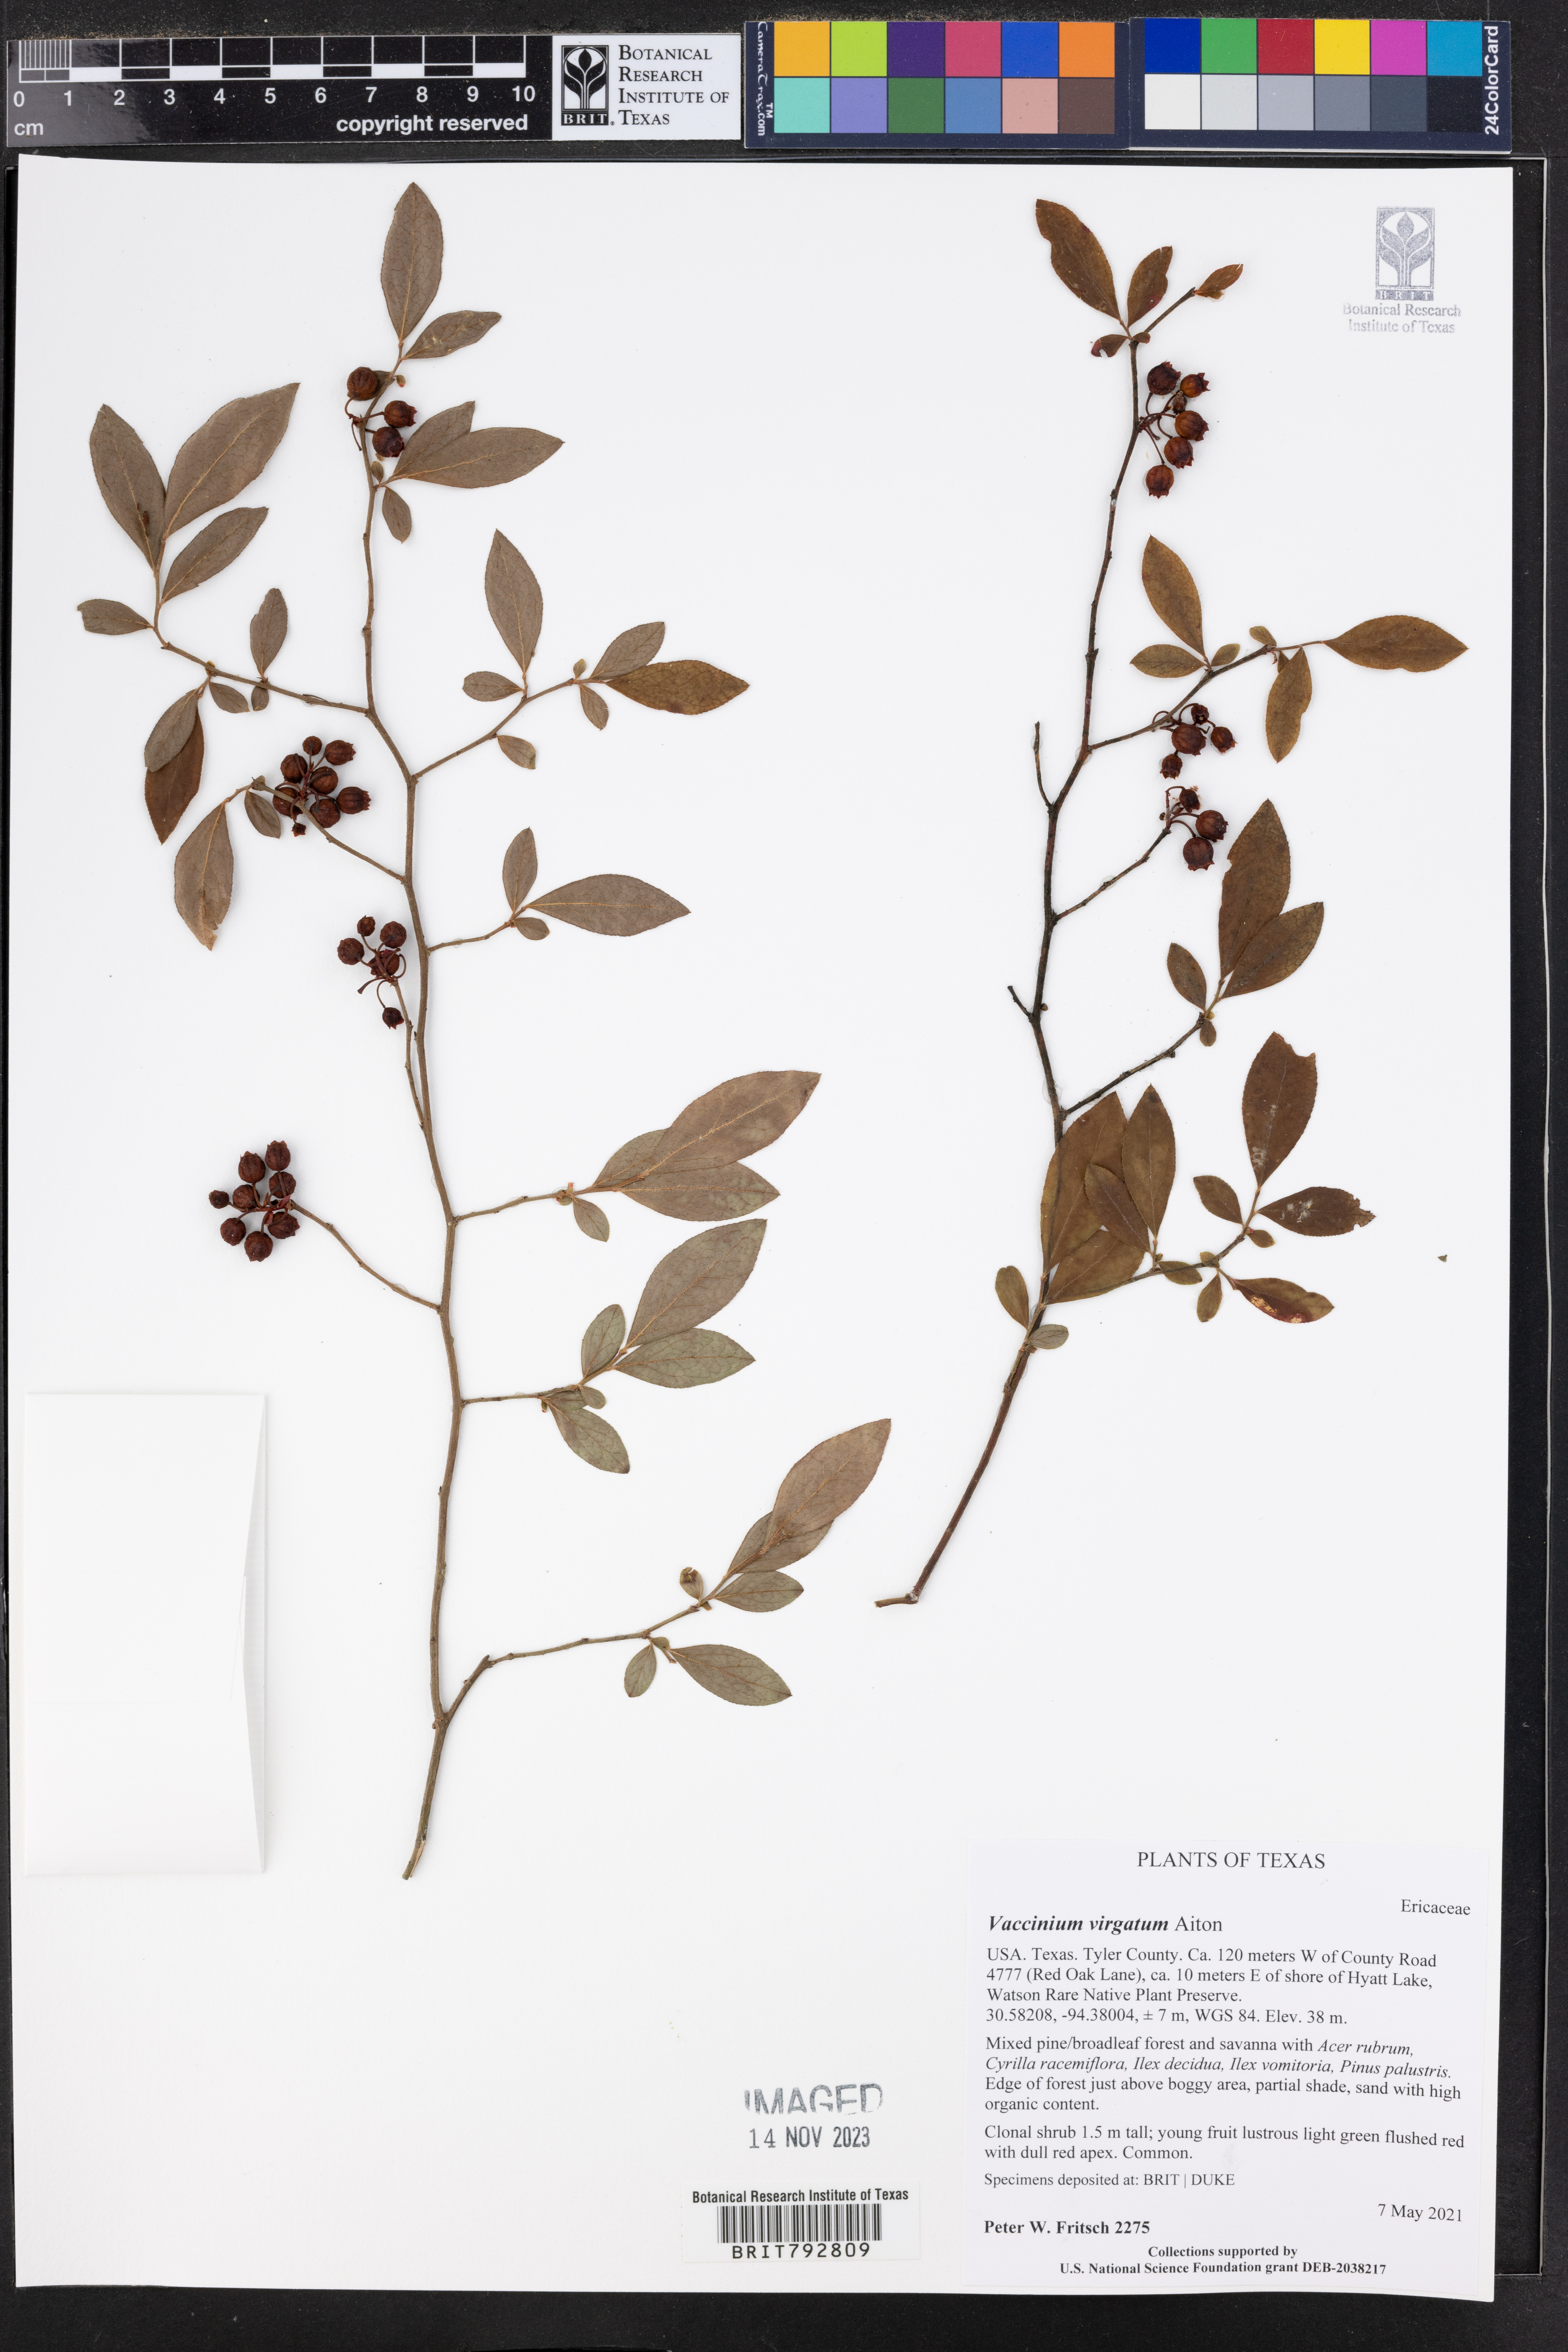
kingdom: Plantae
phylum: Tracheophyta
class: Magnoliopsida
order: Ericales
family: Ericaceae
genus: Vaccinium
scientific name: Vaccinium corymbosum
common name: Blueberry
